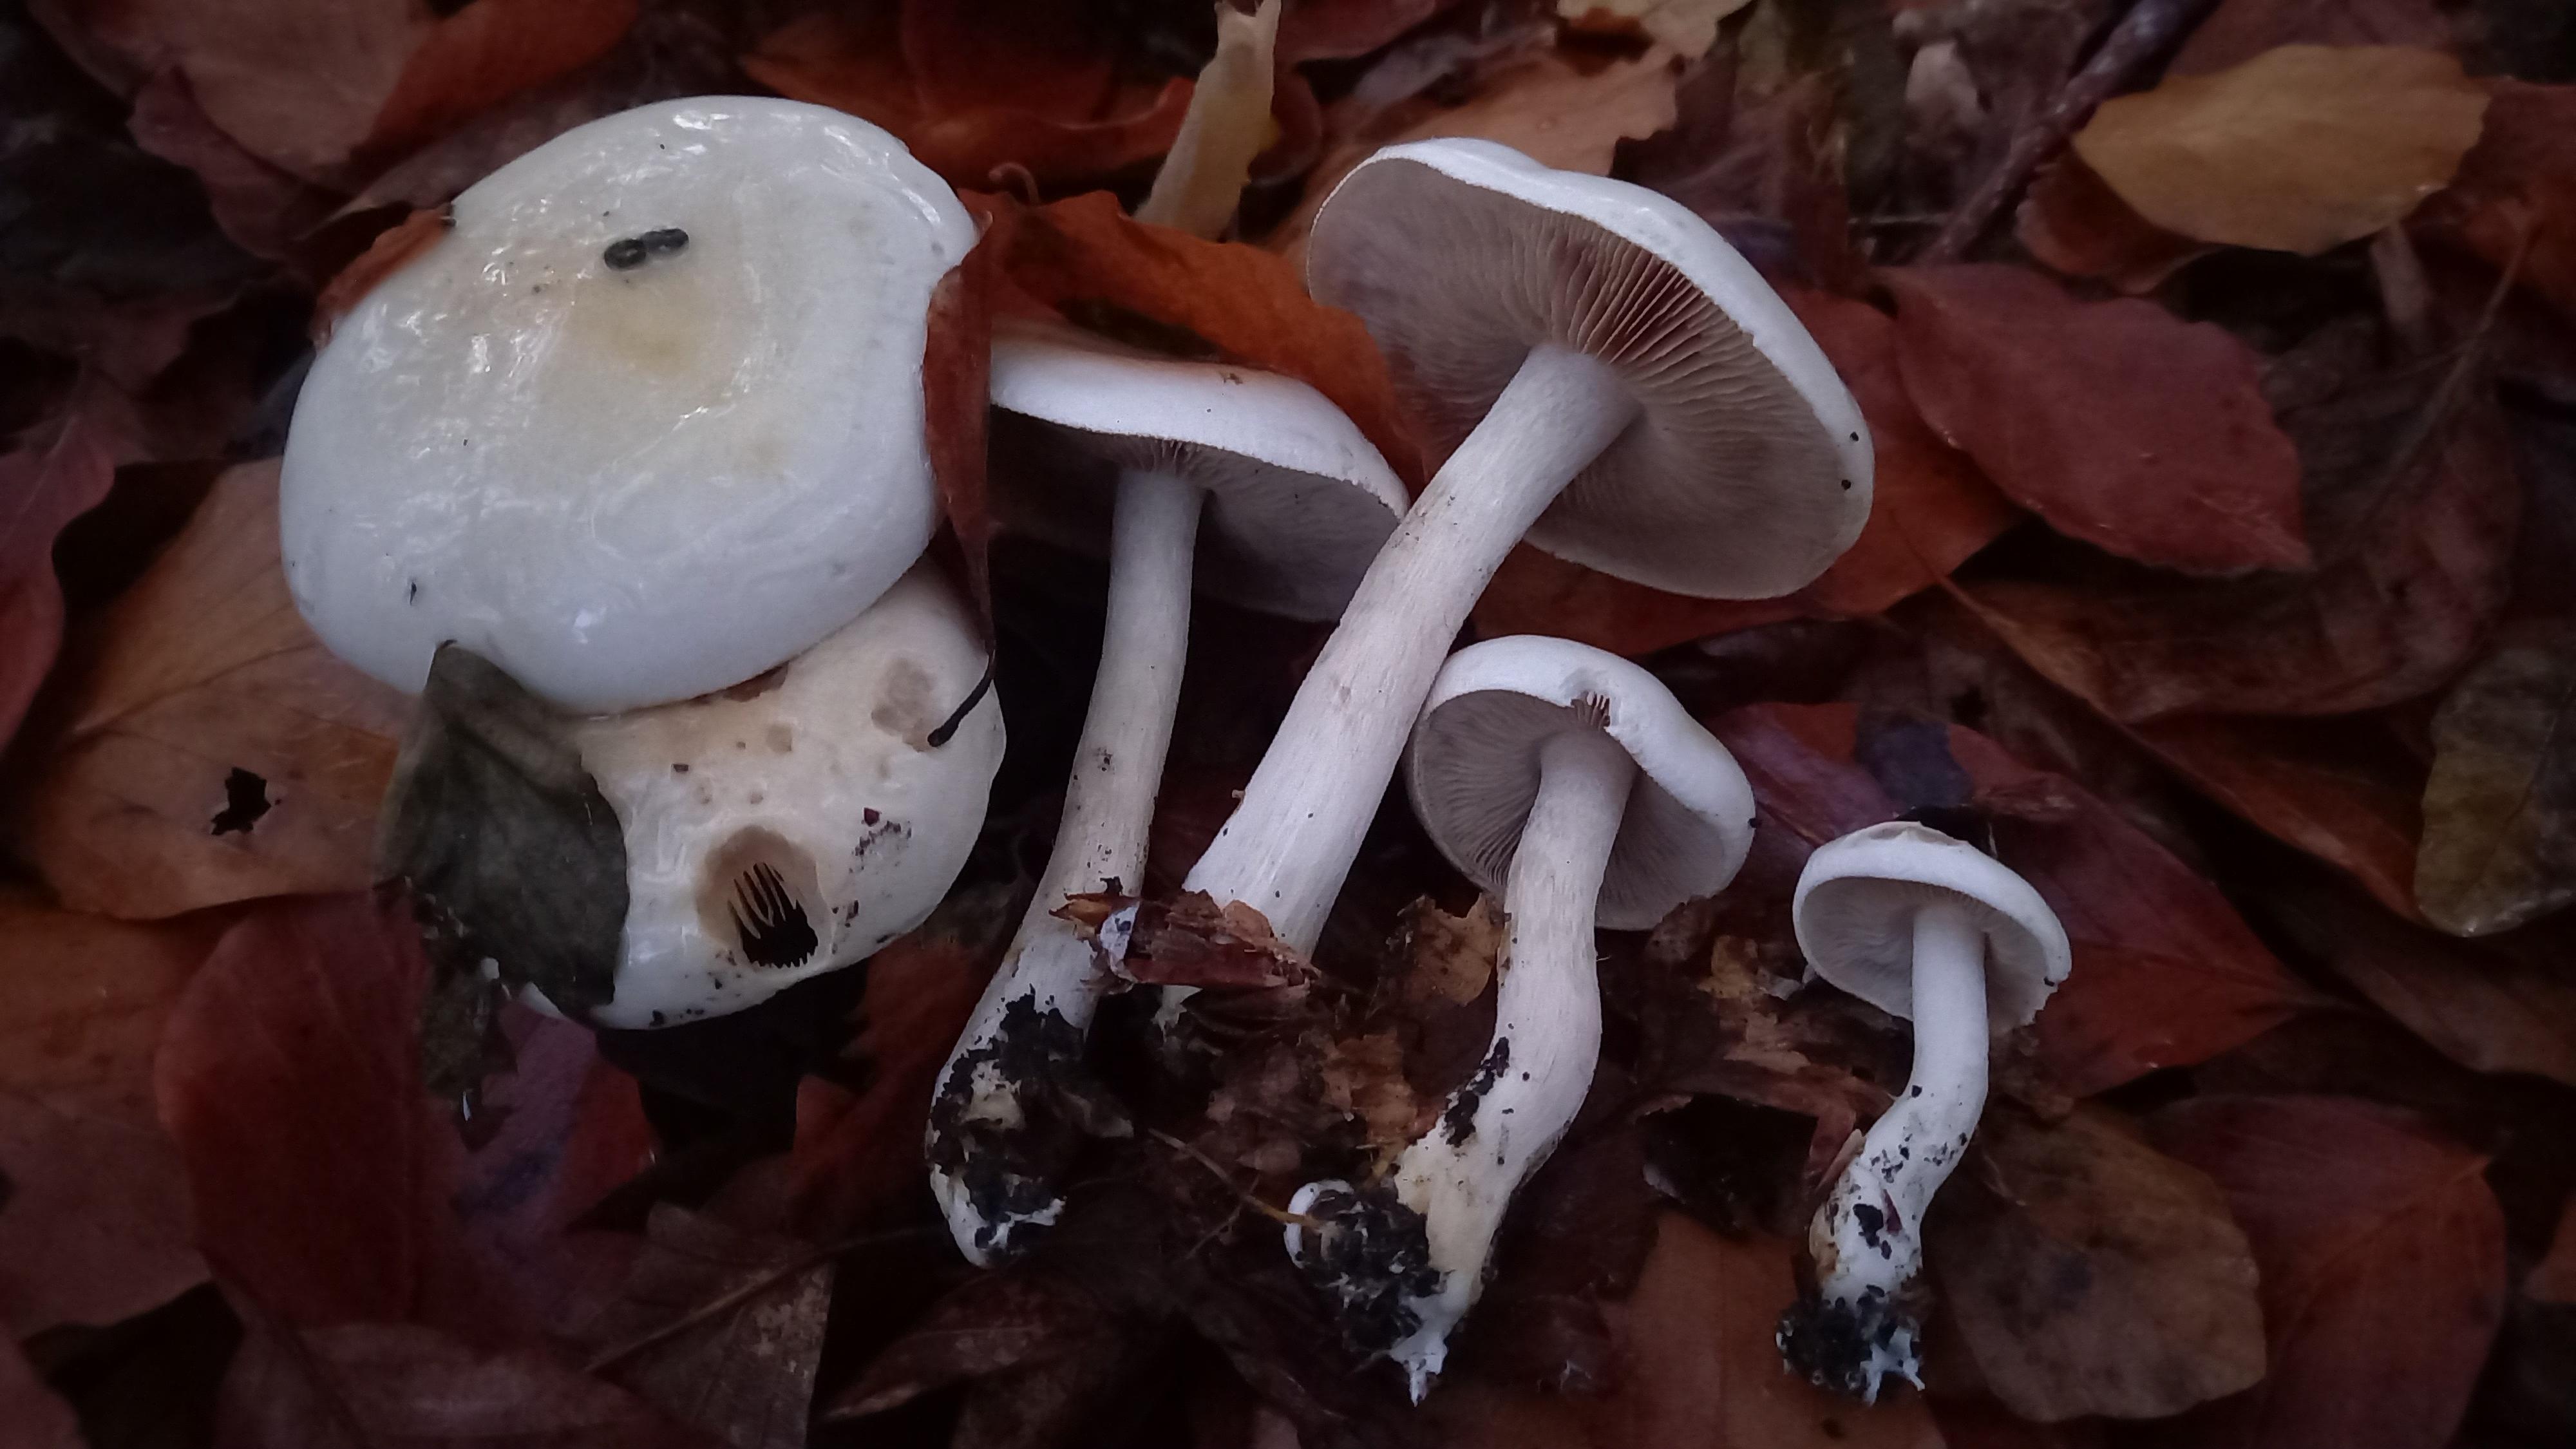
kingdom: Fungi
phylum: Basidiomycota
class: Agaricomycetes
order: Agaricales
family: Hymenogastraceae
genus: Hebeloma
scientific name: Hebeloma
